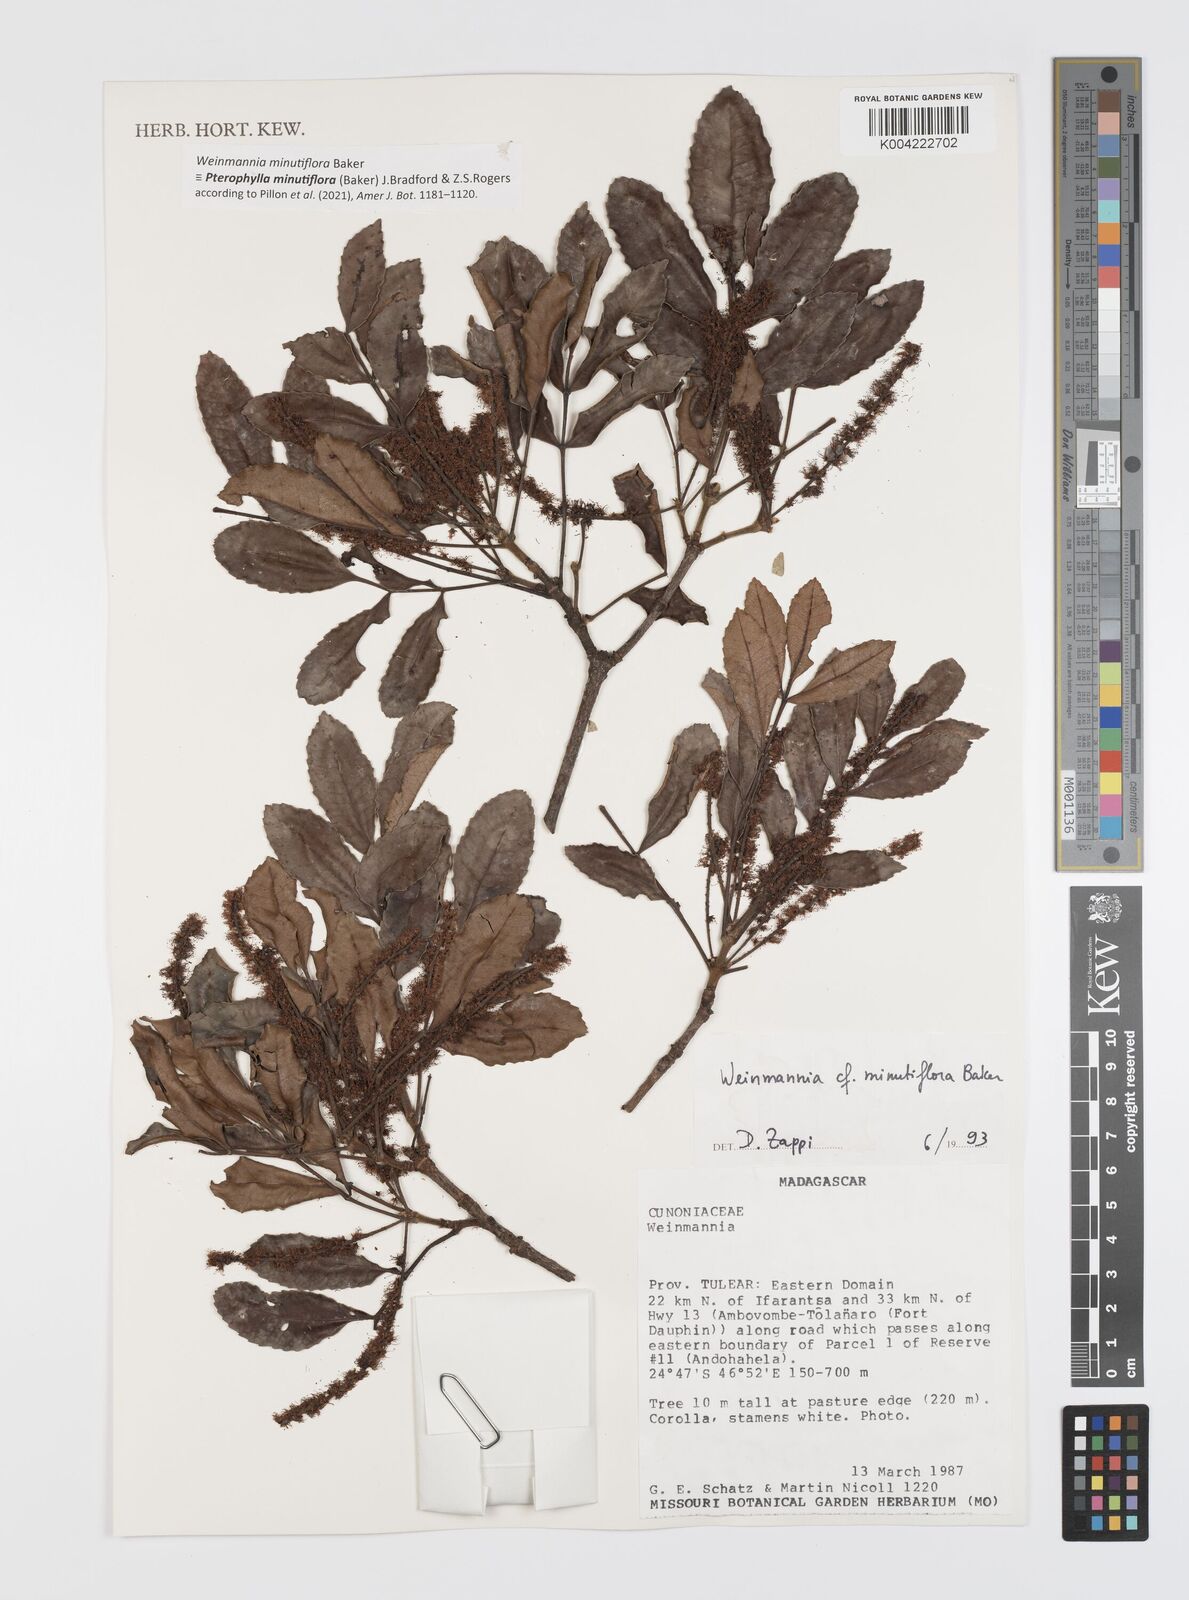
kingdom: Plantae
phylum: Tracheophyta
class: Magnoliopsida
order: Oxalidales
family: Cunoniaceae
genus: Pterophylla
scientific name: Pterophylla
